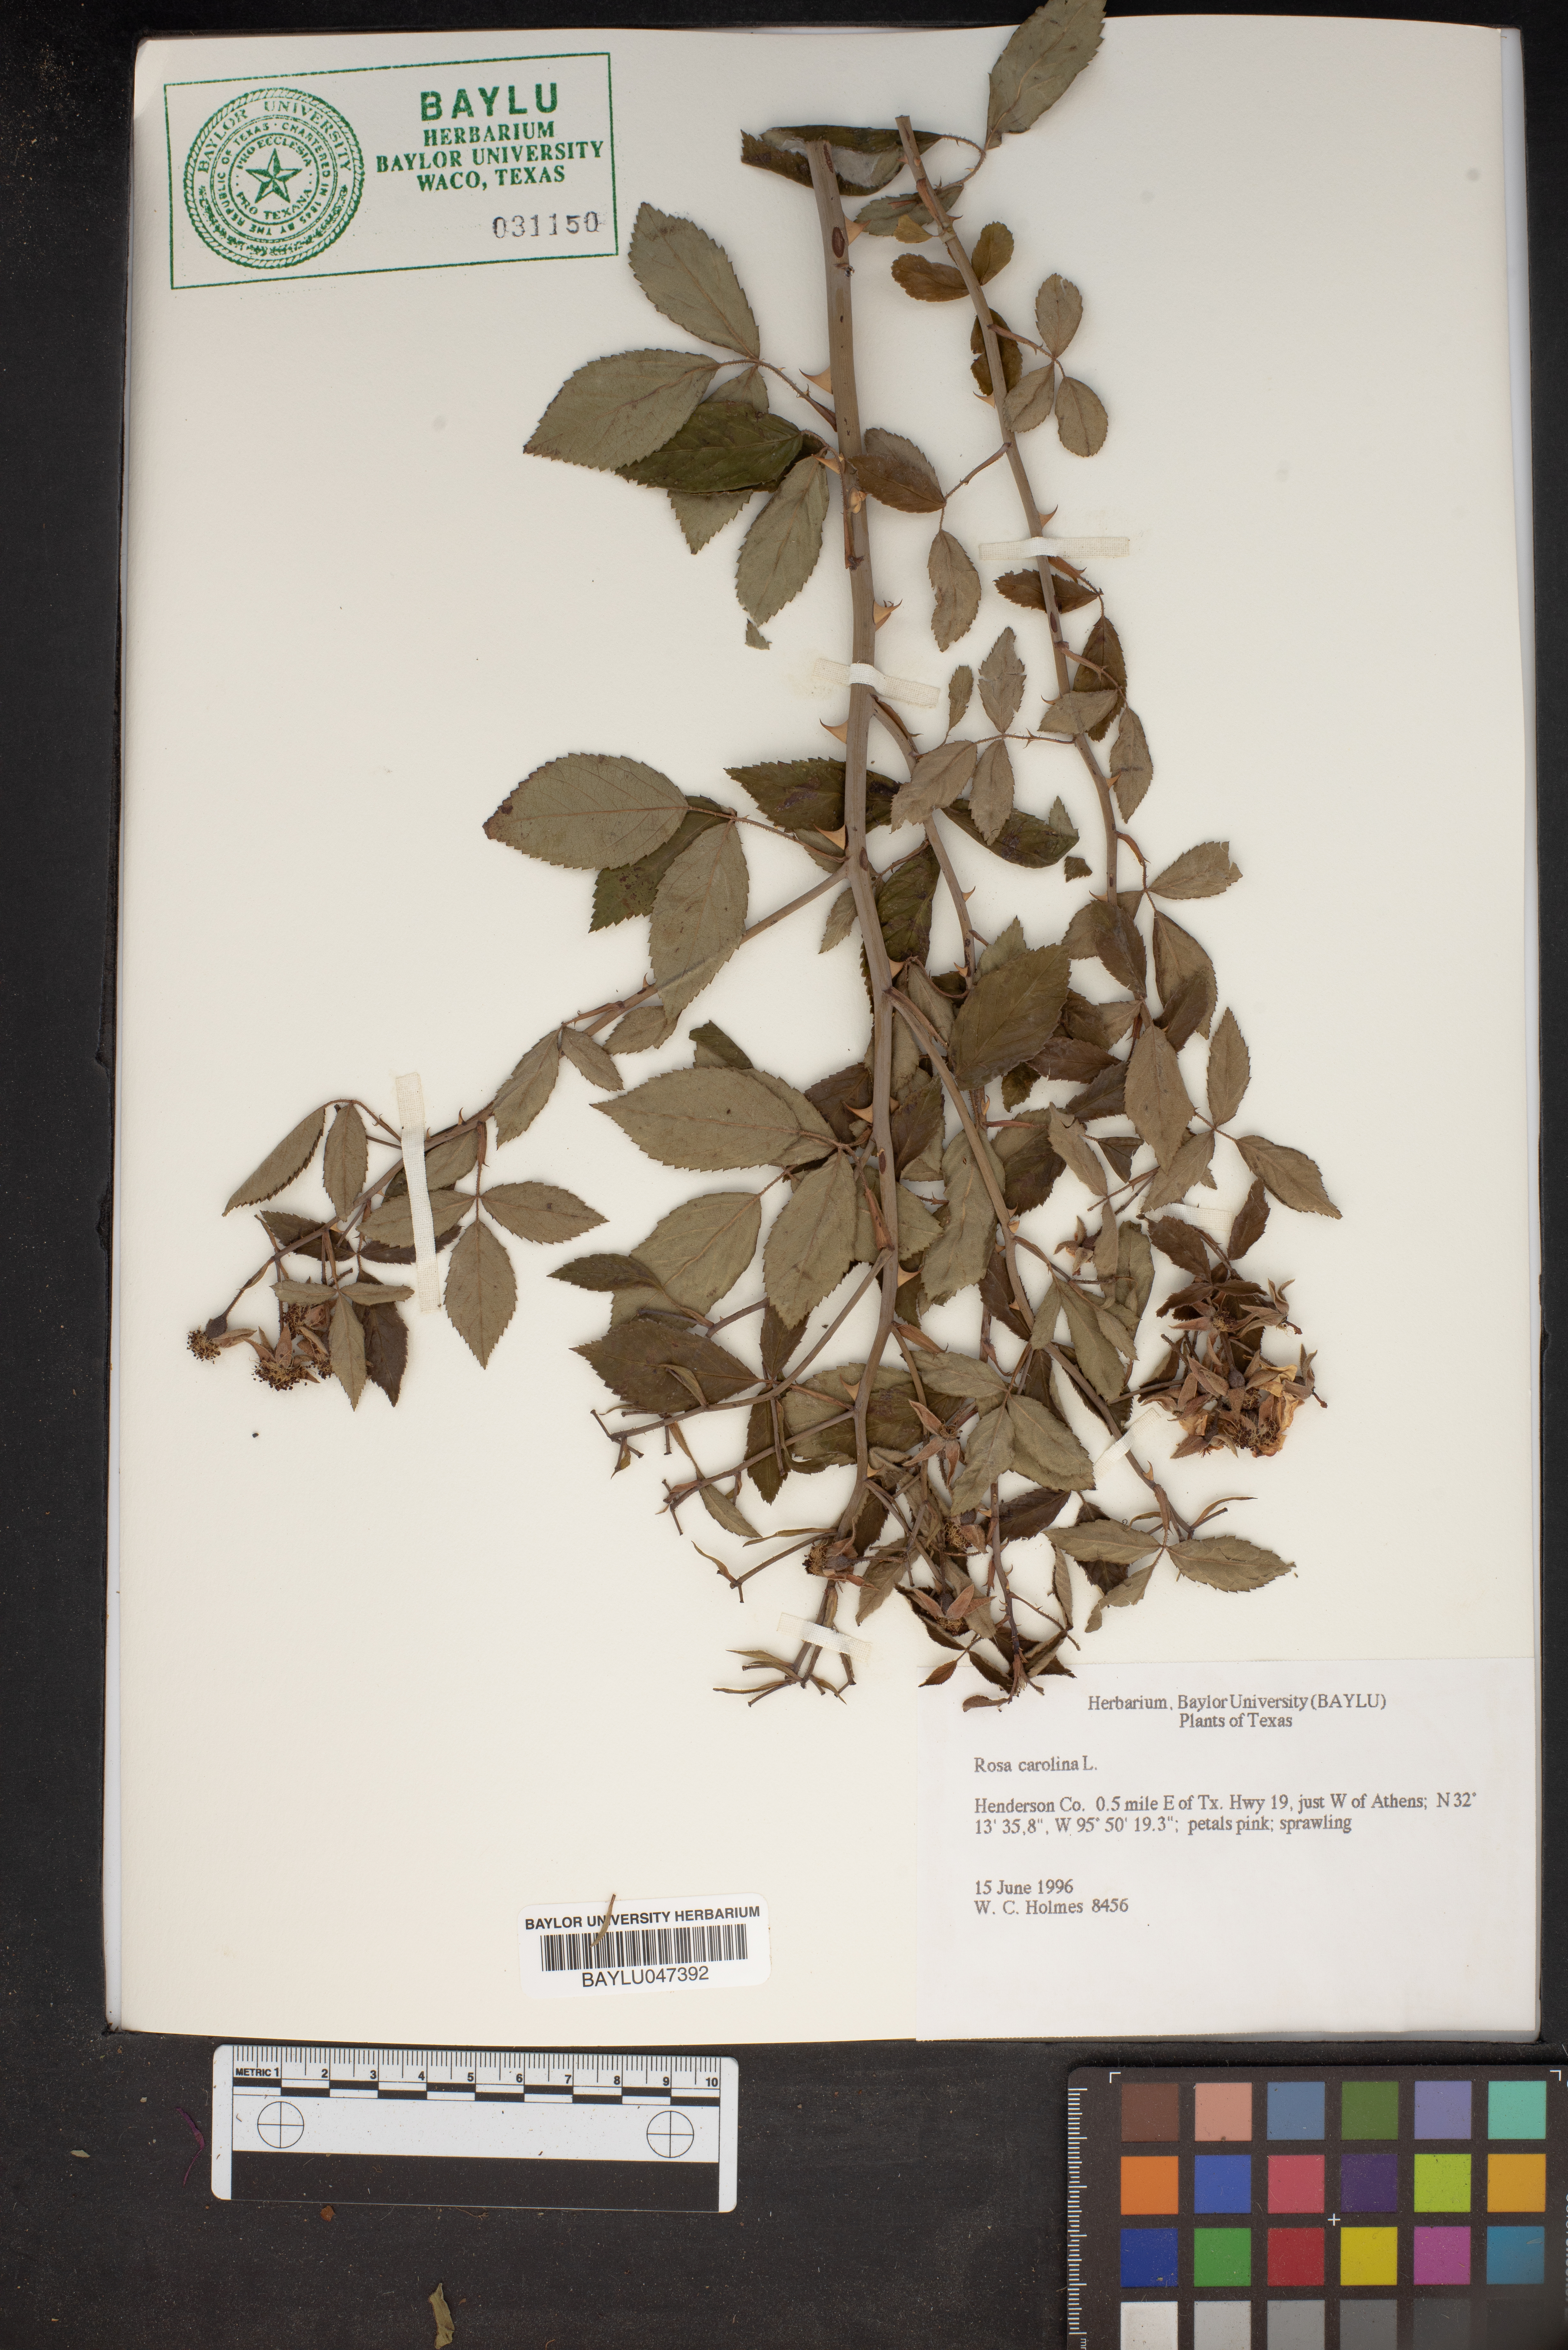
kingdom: Plantae
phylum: Tracheophyta
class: Magnoliopsida
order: Rosales
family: Rosaceae
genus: Rosa
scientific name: Rosa carolina
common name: Pasture rose
